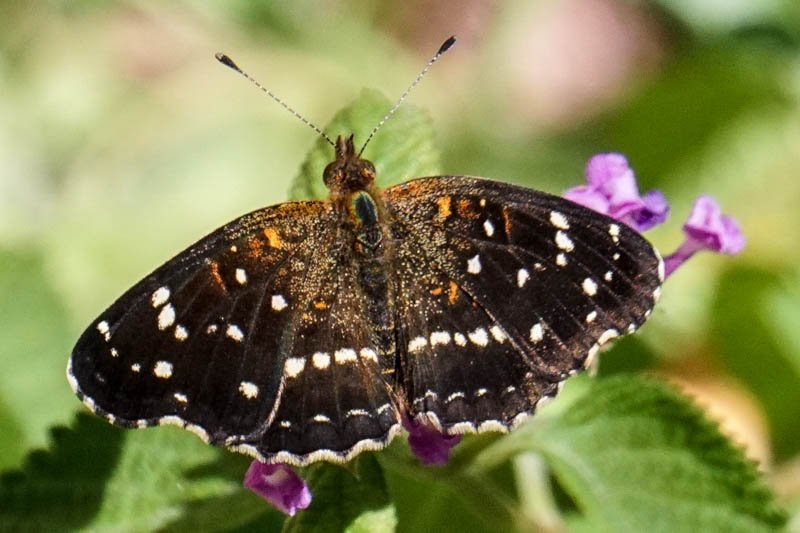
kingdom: Animalia
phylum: Arthropoda
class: Insecta
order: Lepidoptera
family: Nymphalidae
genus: Anthanassa
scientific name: Anthanassa texana
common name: Texan Crescent
